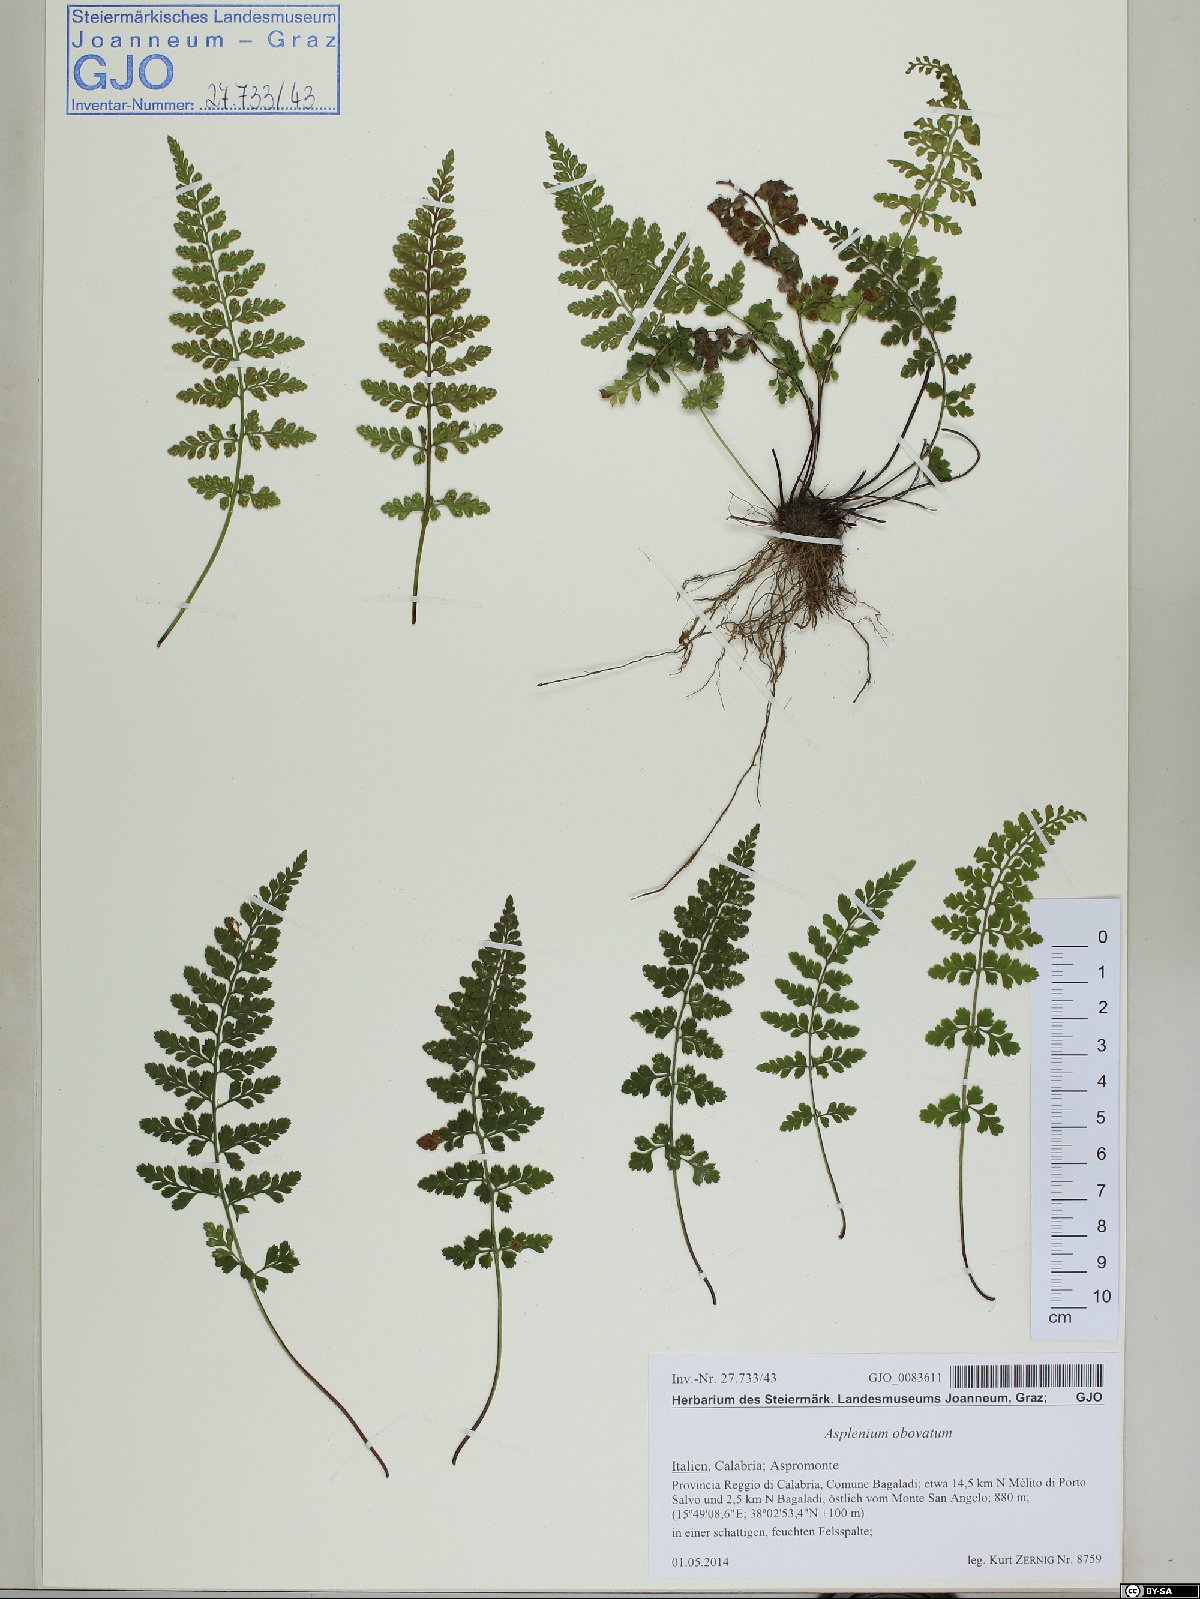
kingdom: Plantae
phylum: Tracheophyta
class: Polypodiopsida
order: Polypodiales
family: Aspleniaceae
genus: Asplenium
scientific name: Asplenium obovatum
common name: Lanceolate spleenwort
